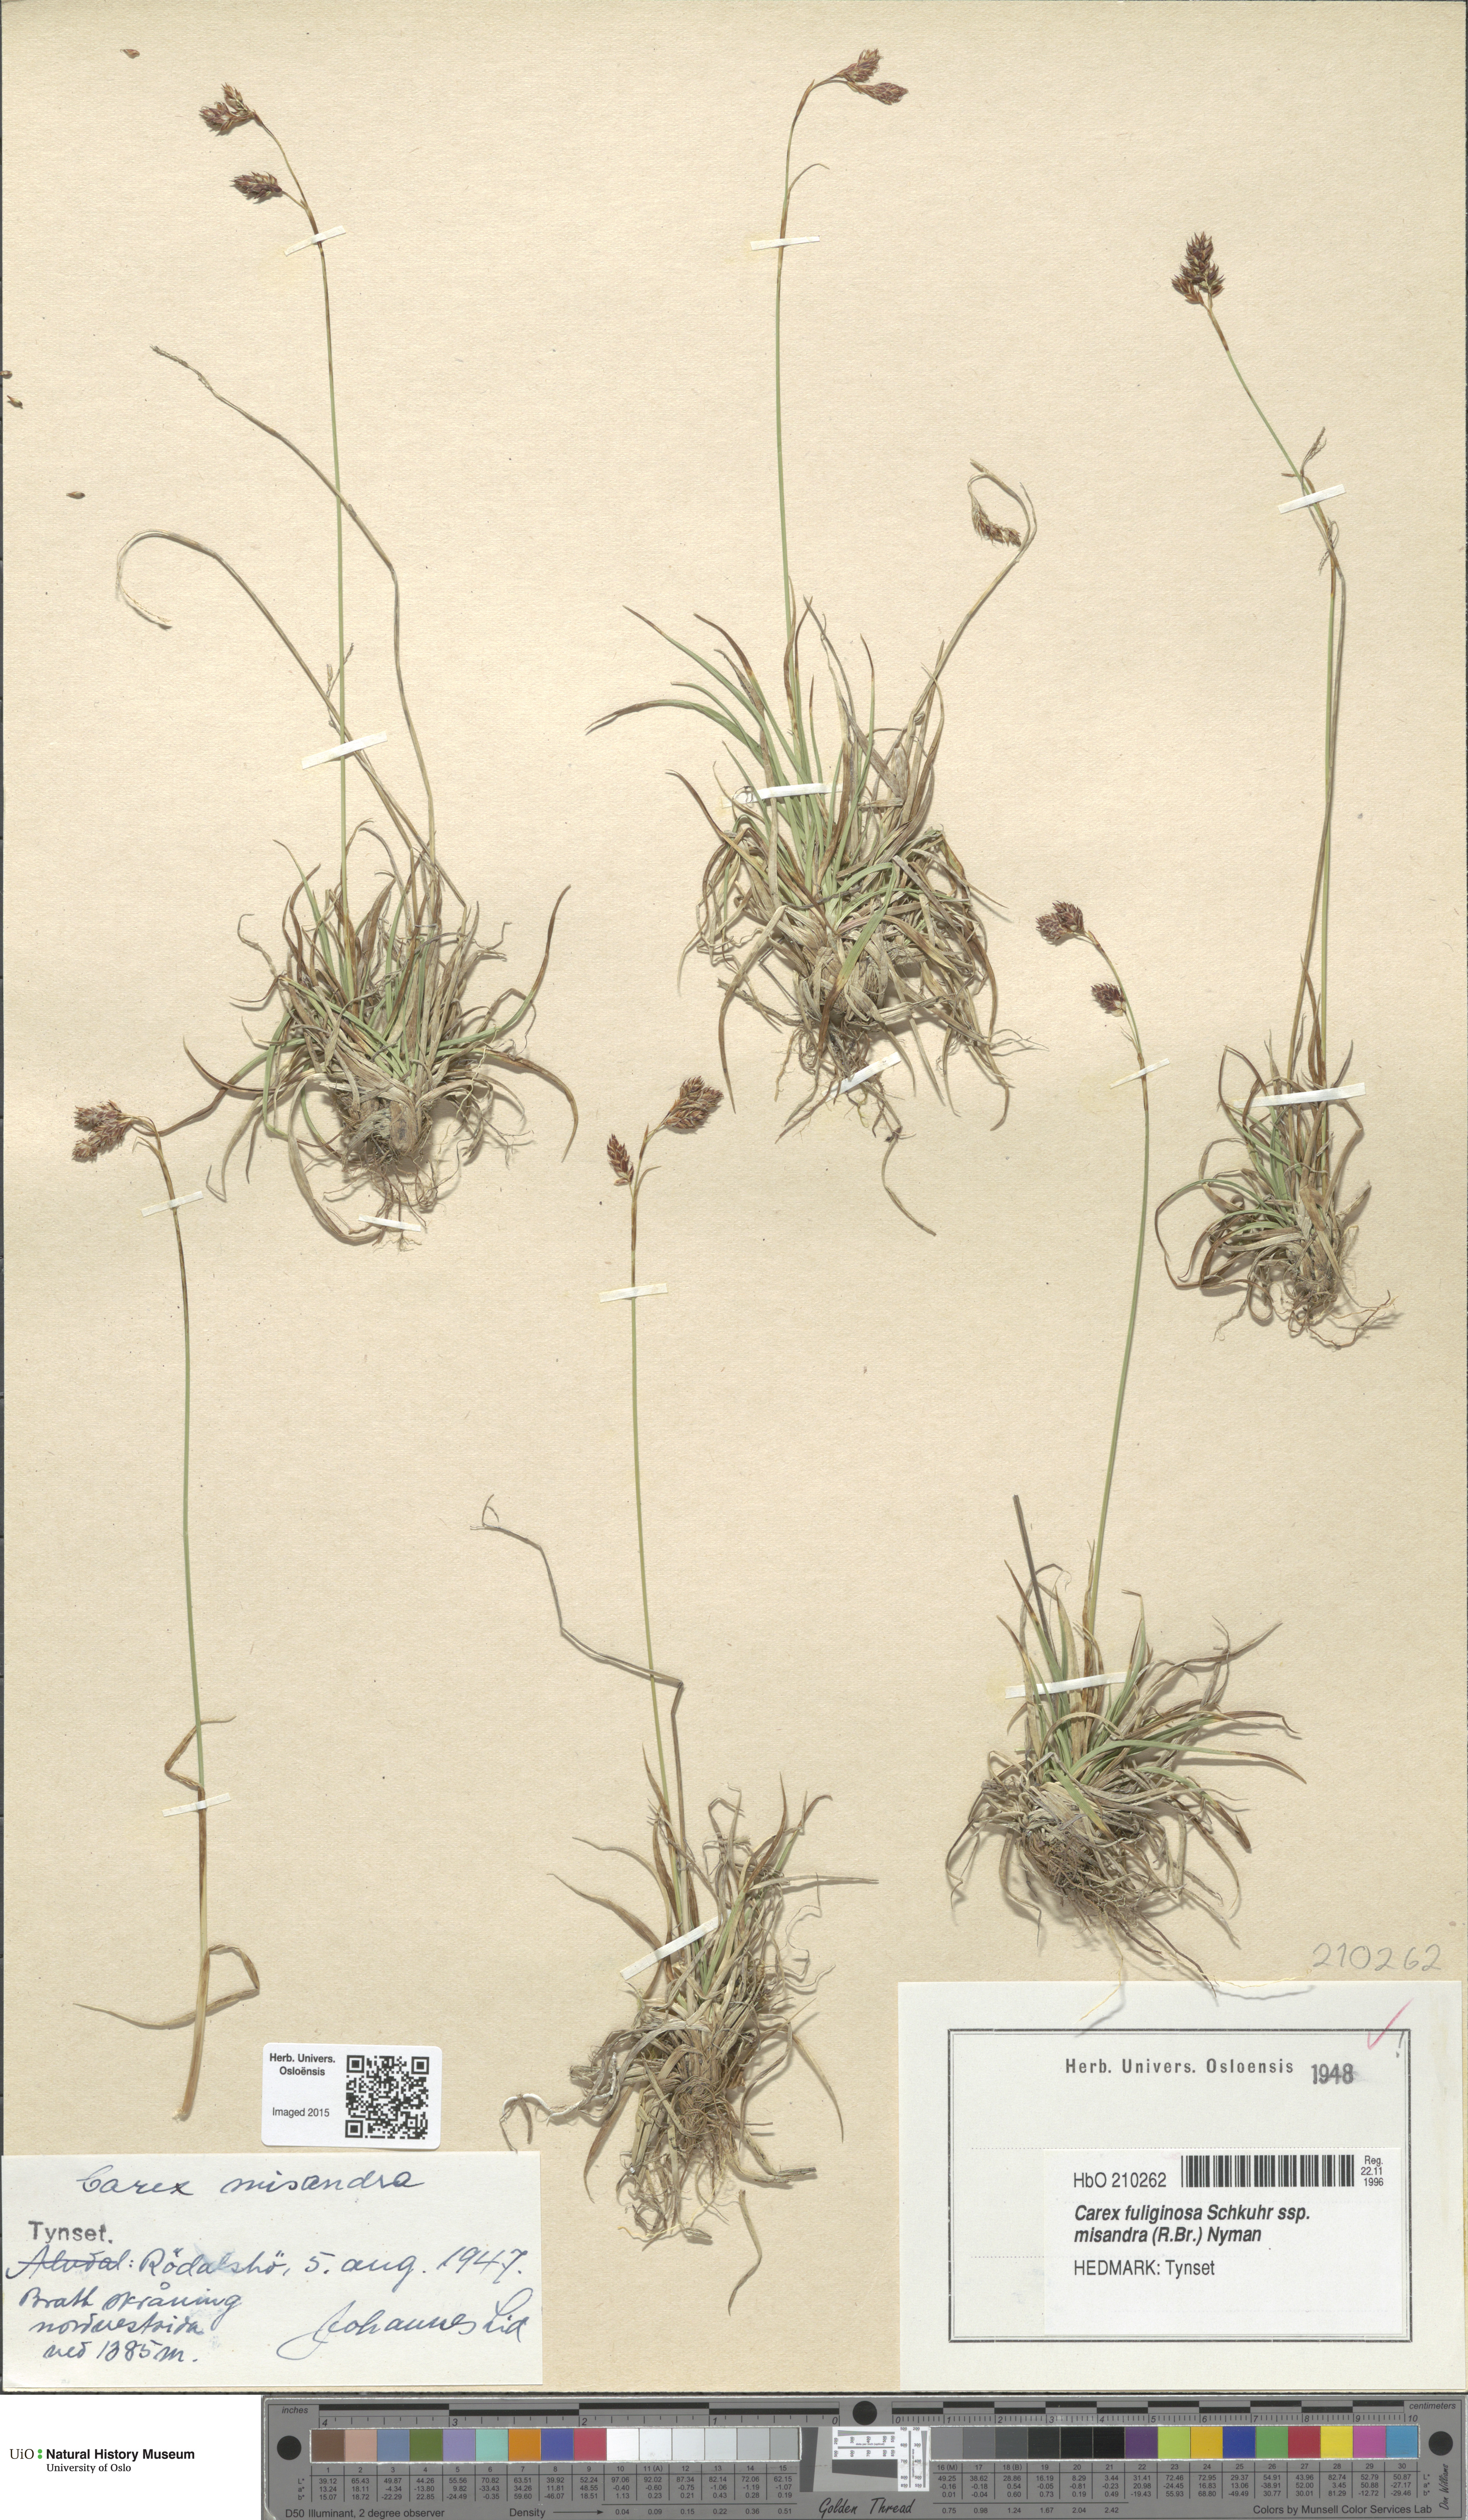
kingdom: Plantae
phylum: Tracheophyta
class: Liliopsida
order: Poales
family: Cyperaceae
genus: Carex
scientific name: Carex fuliginosa
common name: Few-flowered sedge
